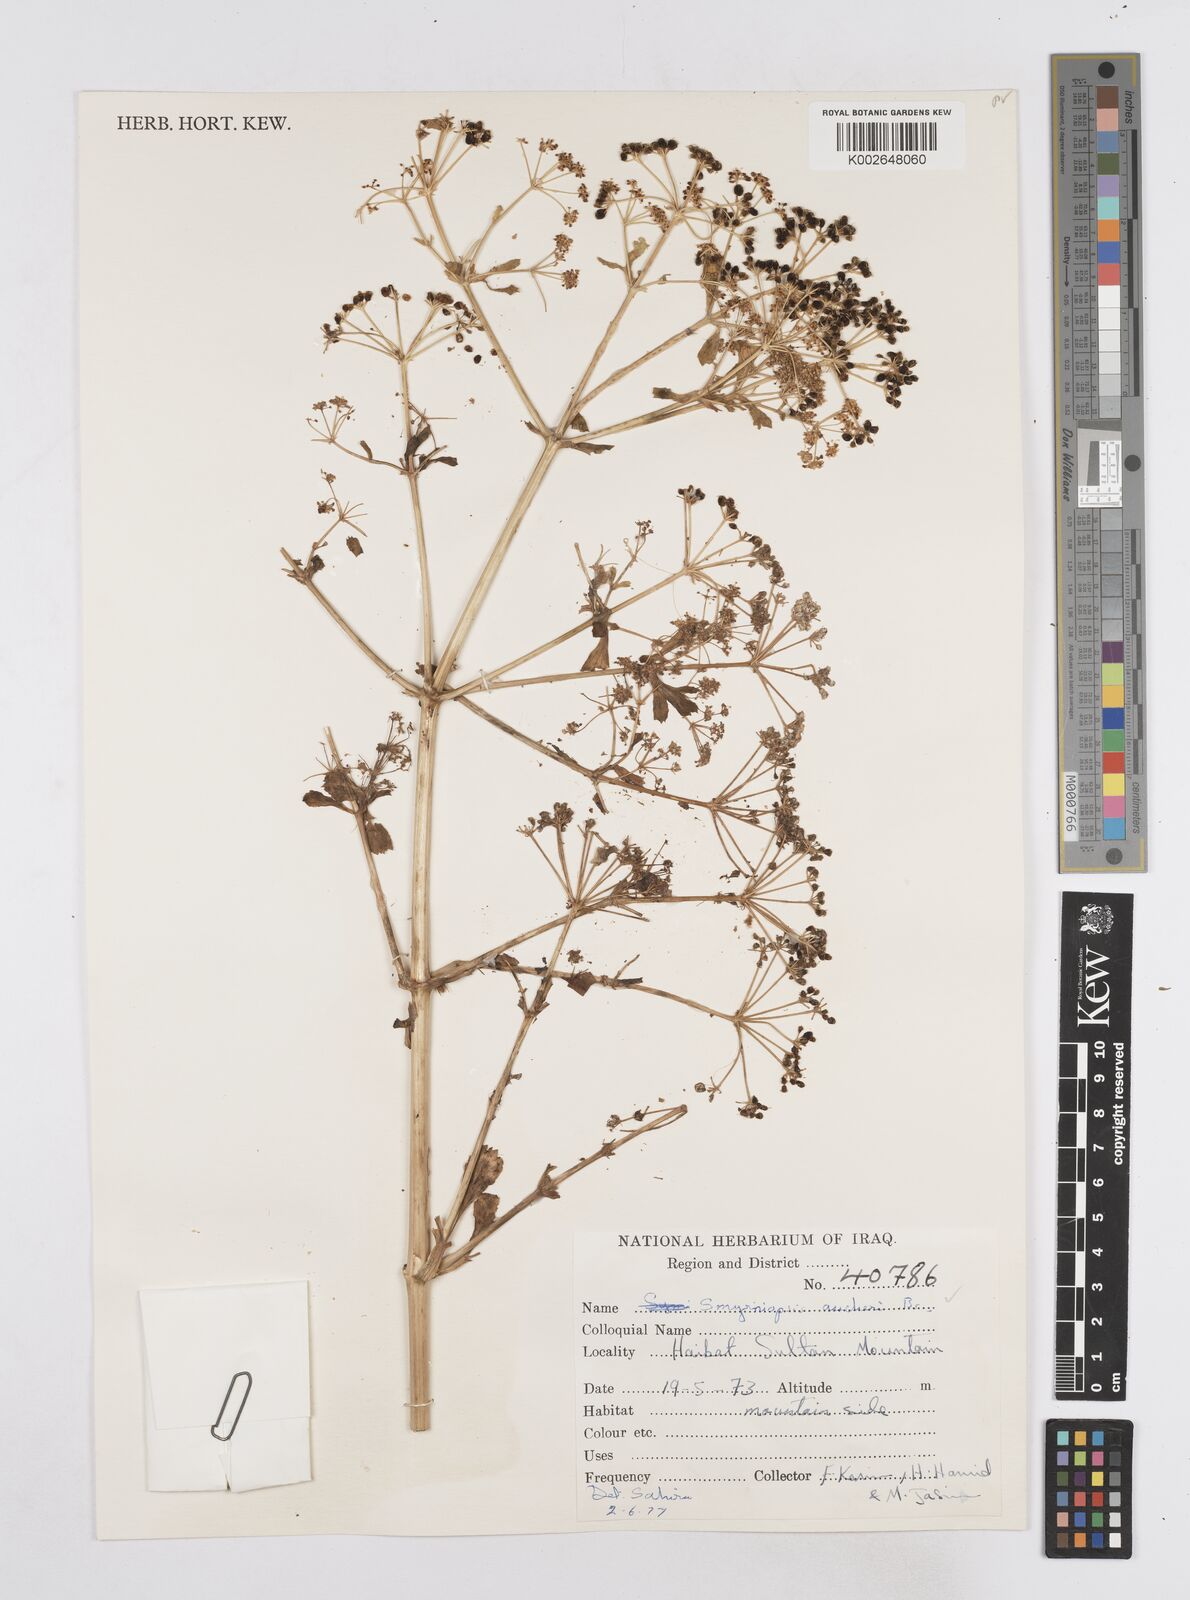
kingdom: Plantae
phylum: Tracheophyta
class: Magnoliopsida
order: Apiales
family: Apiaceae
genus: Smyrniopsis
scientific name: Smyrniopsis aucheri
